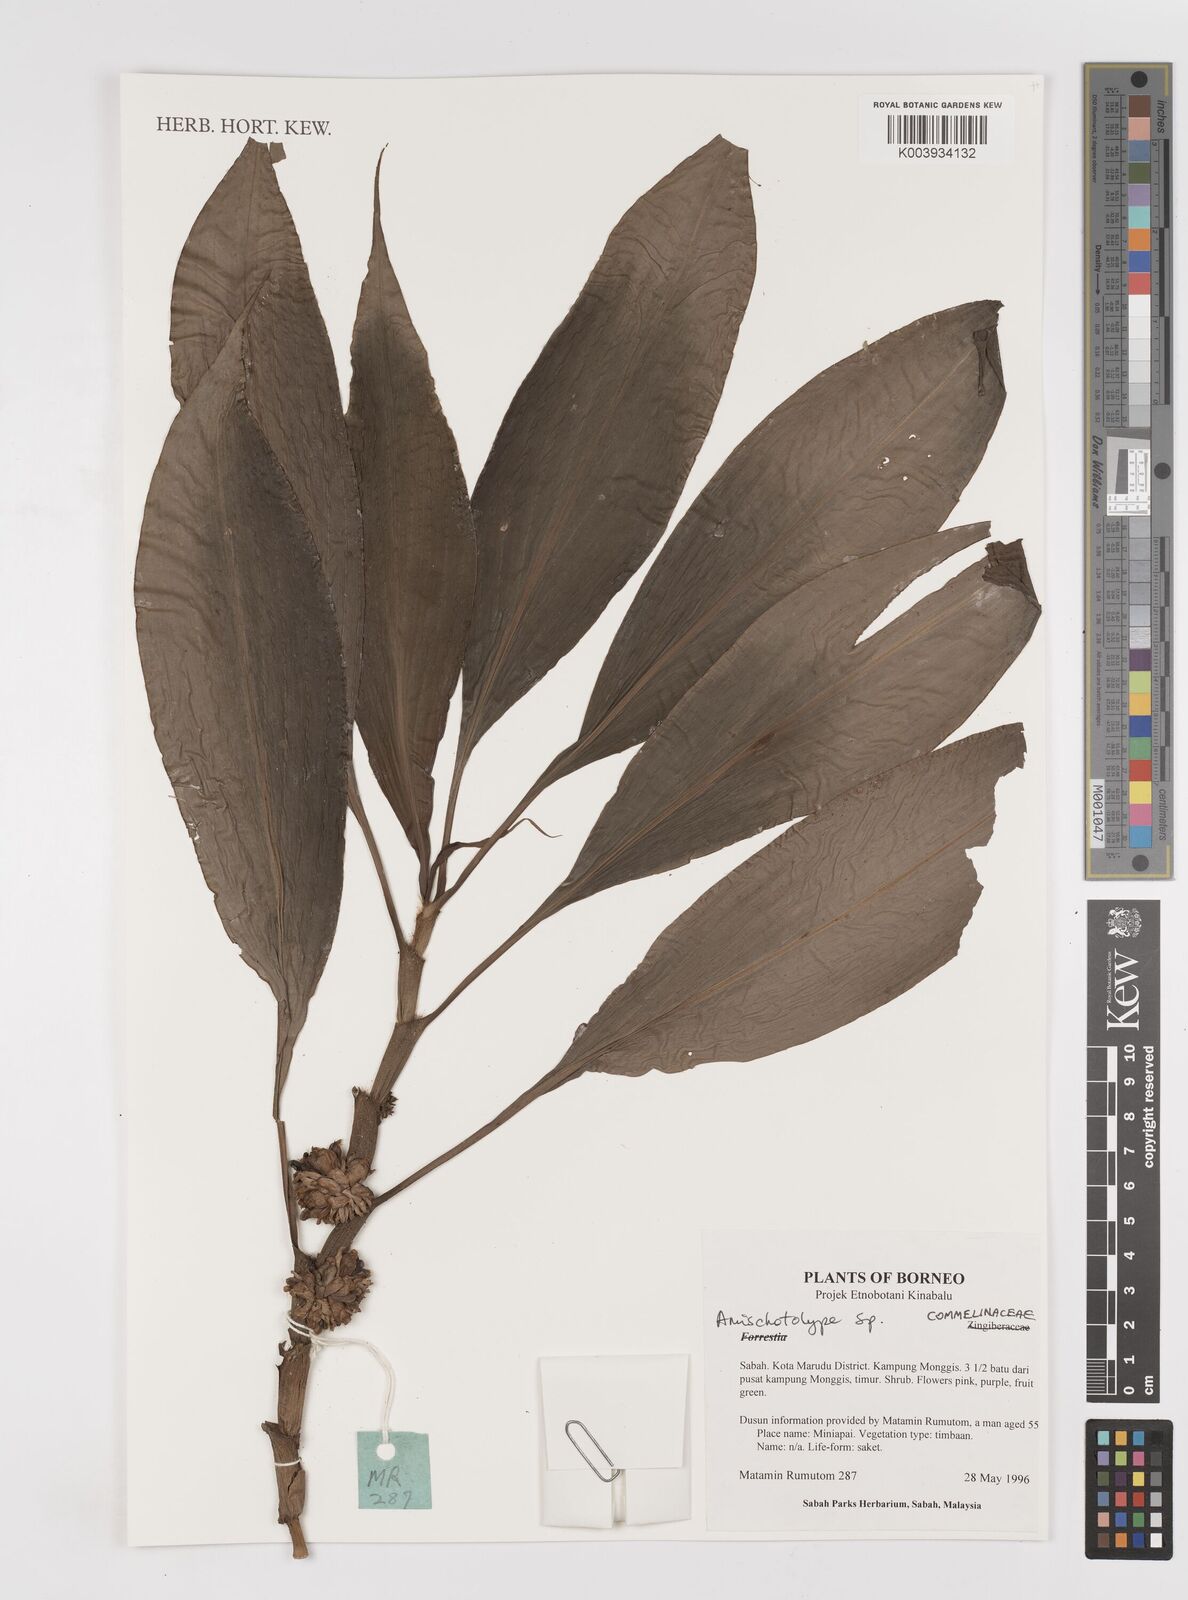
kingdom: Plantae
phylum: Tracheophyta
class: Liliopsida
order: Commelinales
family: Commelinaceae
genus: Amischotolype
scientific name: Amischotolype
